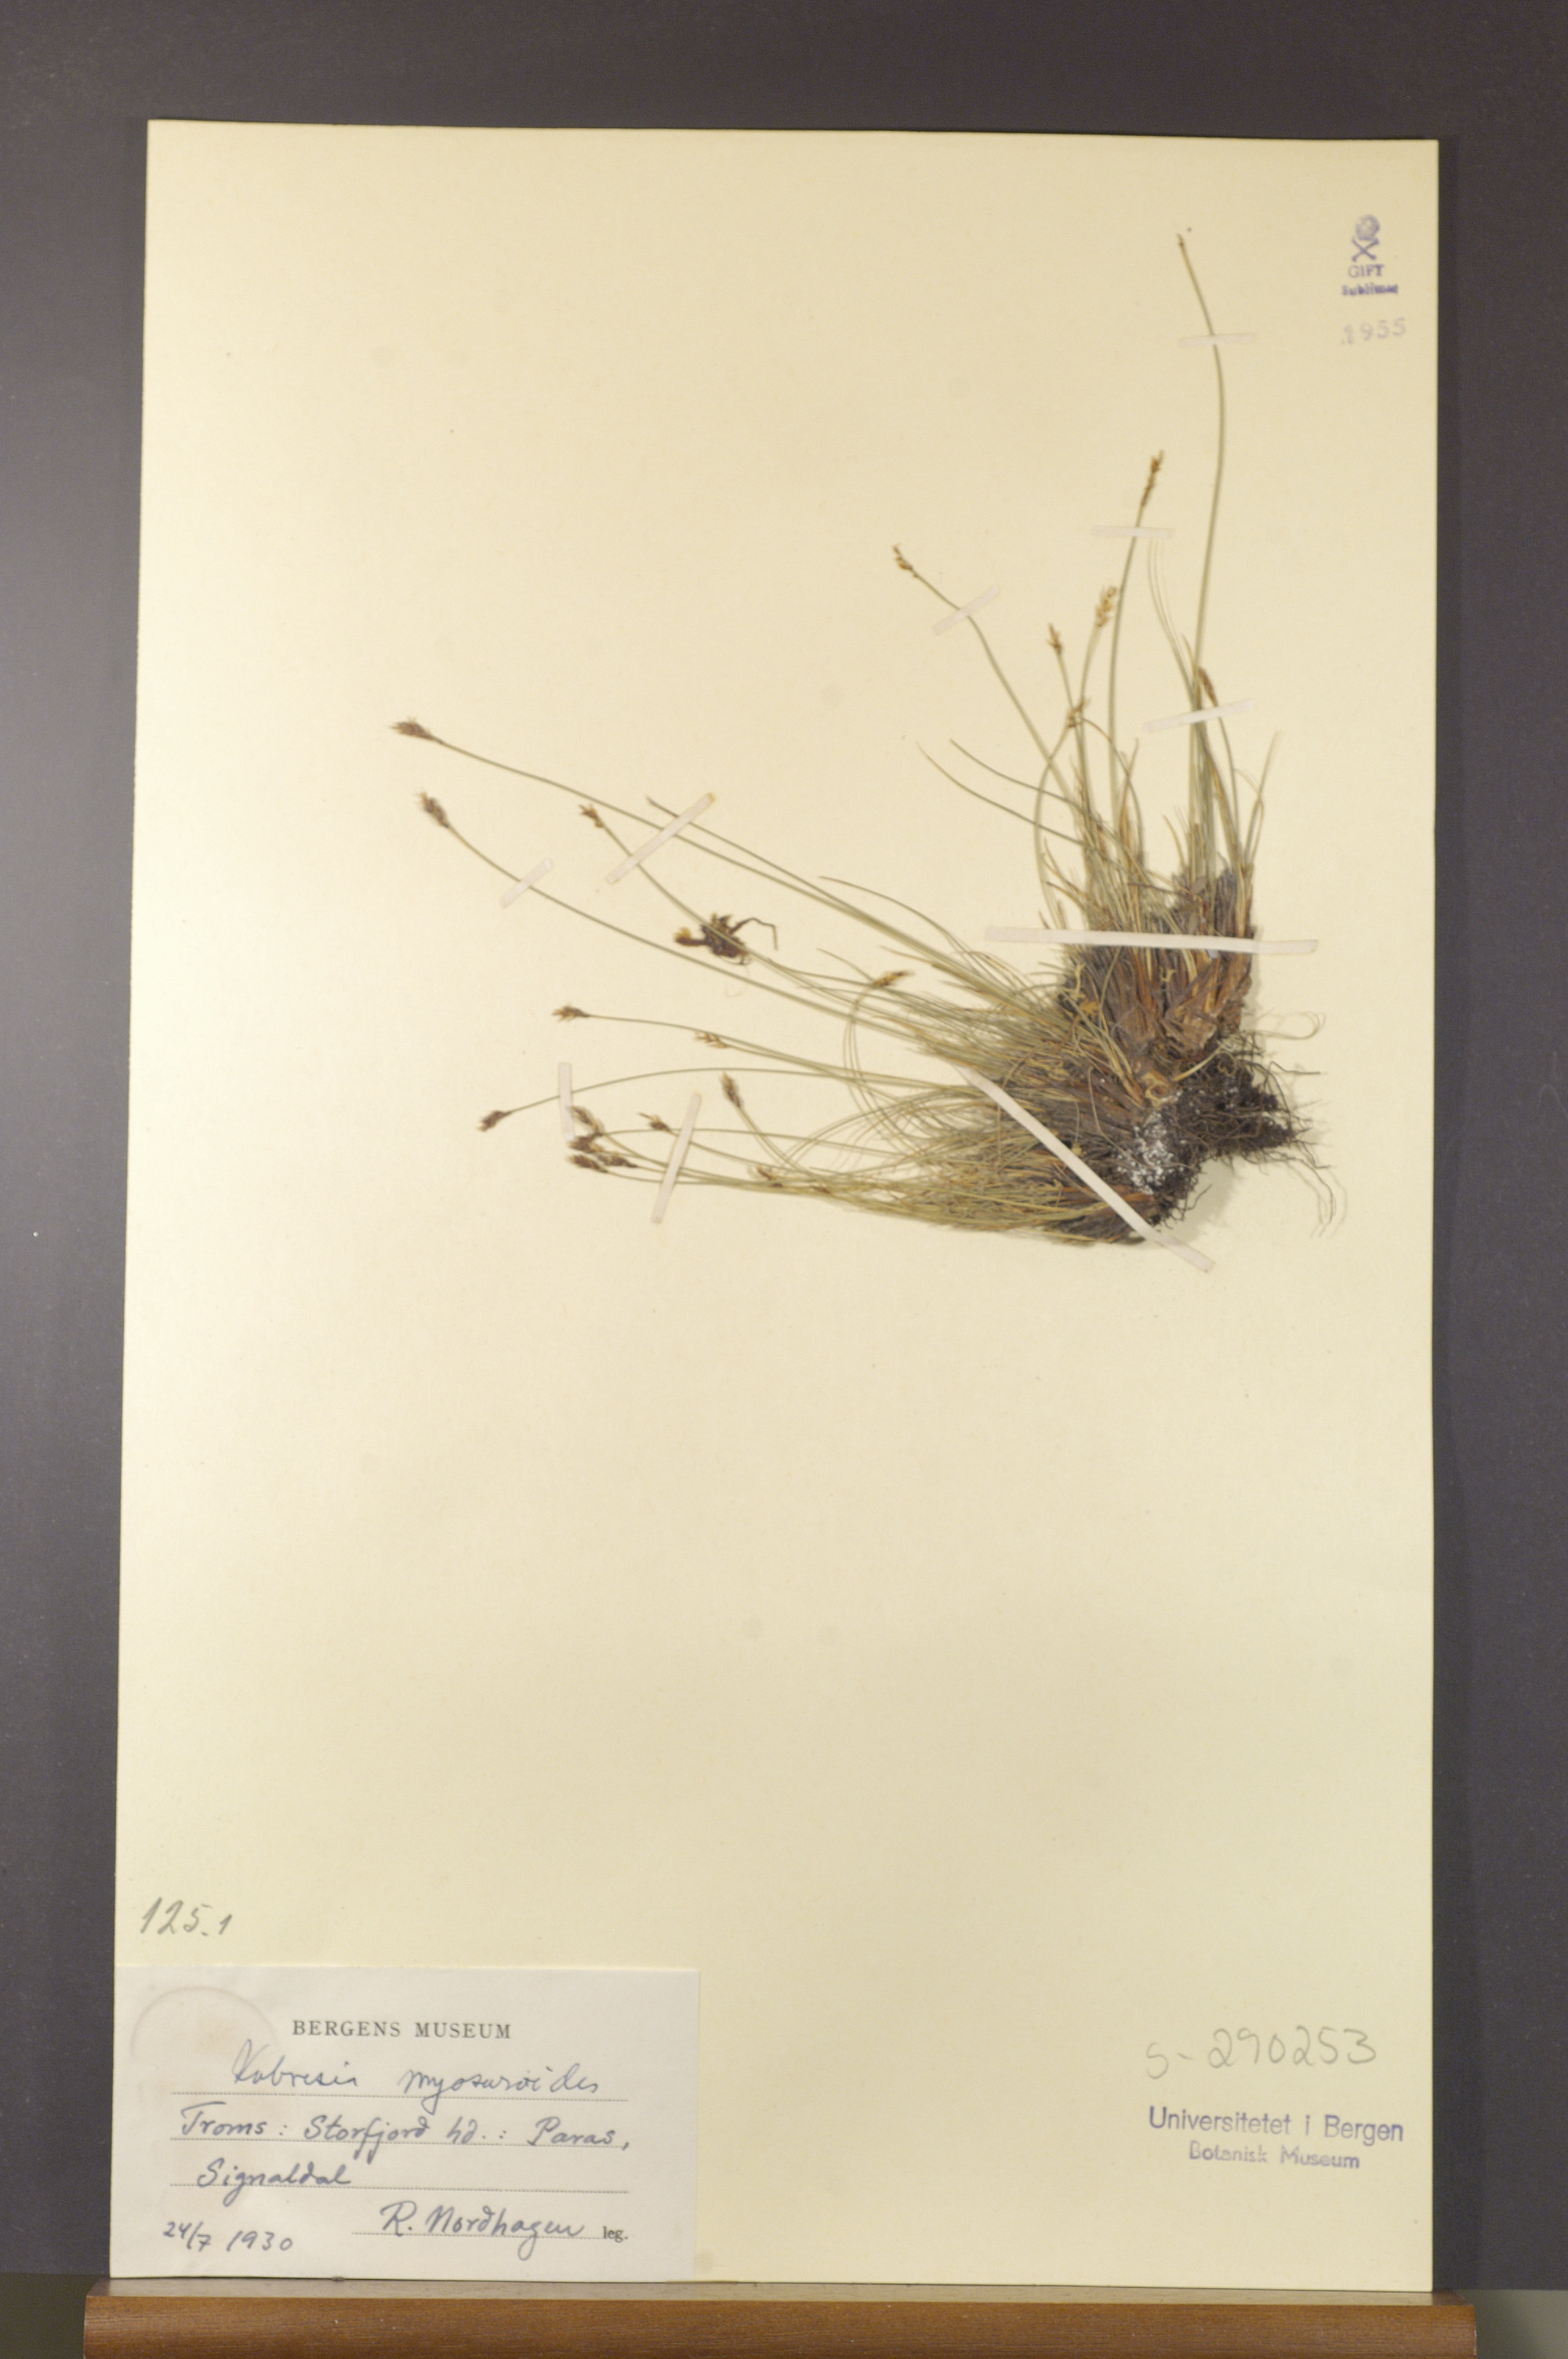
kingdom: Plantae
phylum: Tracheophyta
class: Liliopsida
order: Poales
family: Cyperaceae
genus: Carex
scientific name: Carex myosuroides
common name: Bellard's bog sedge
